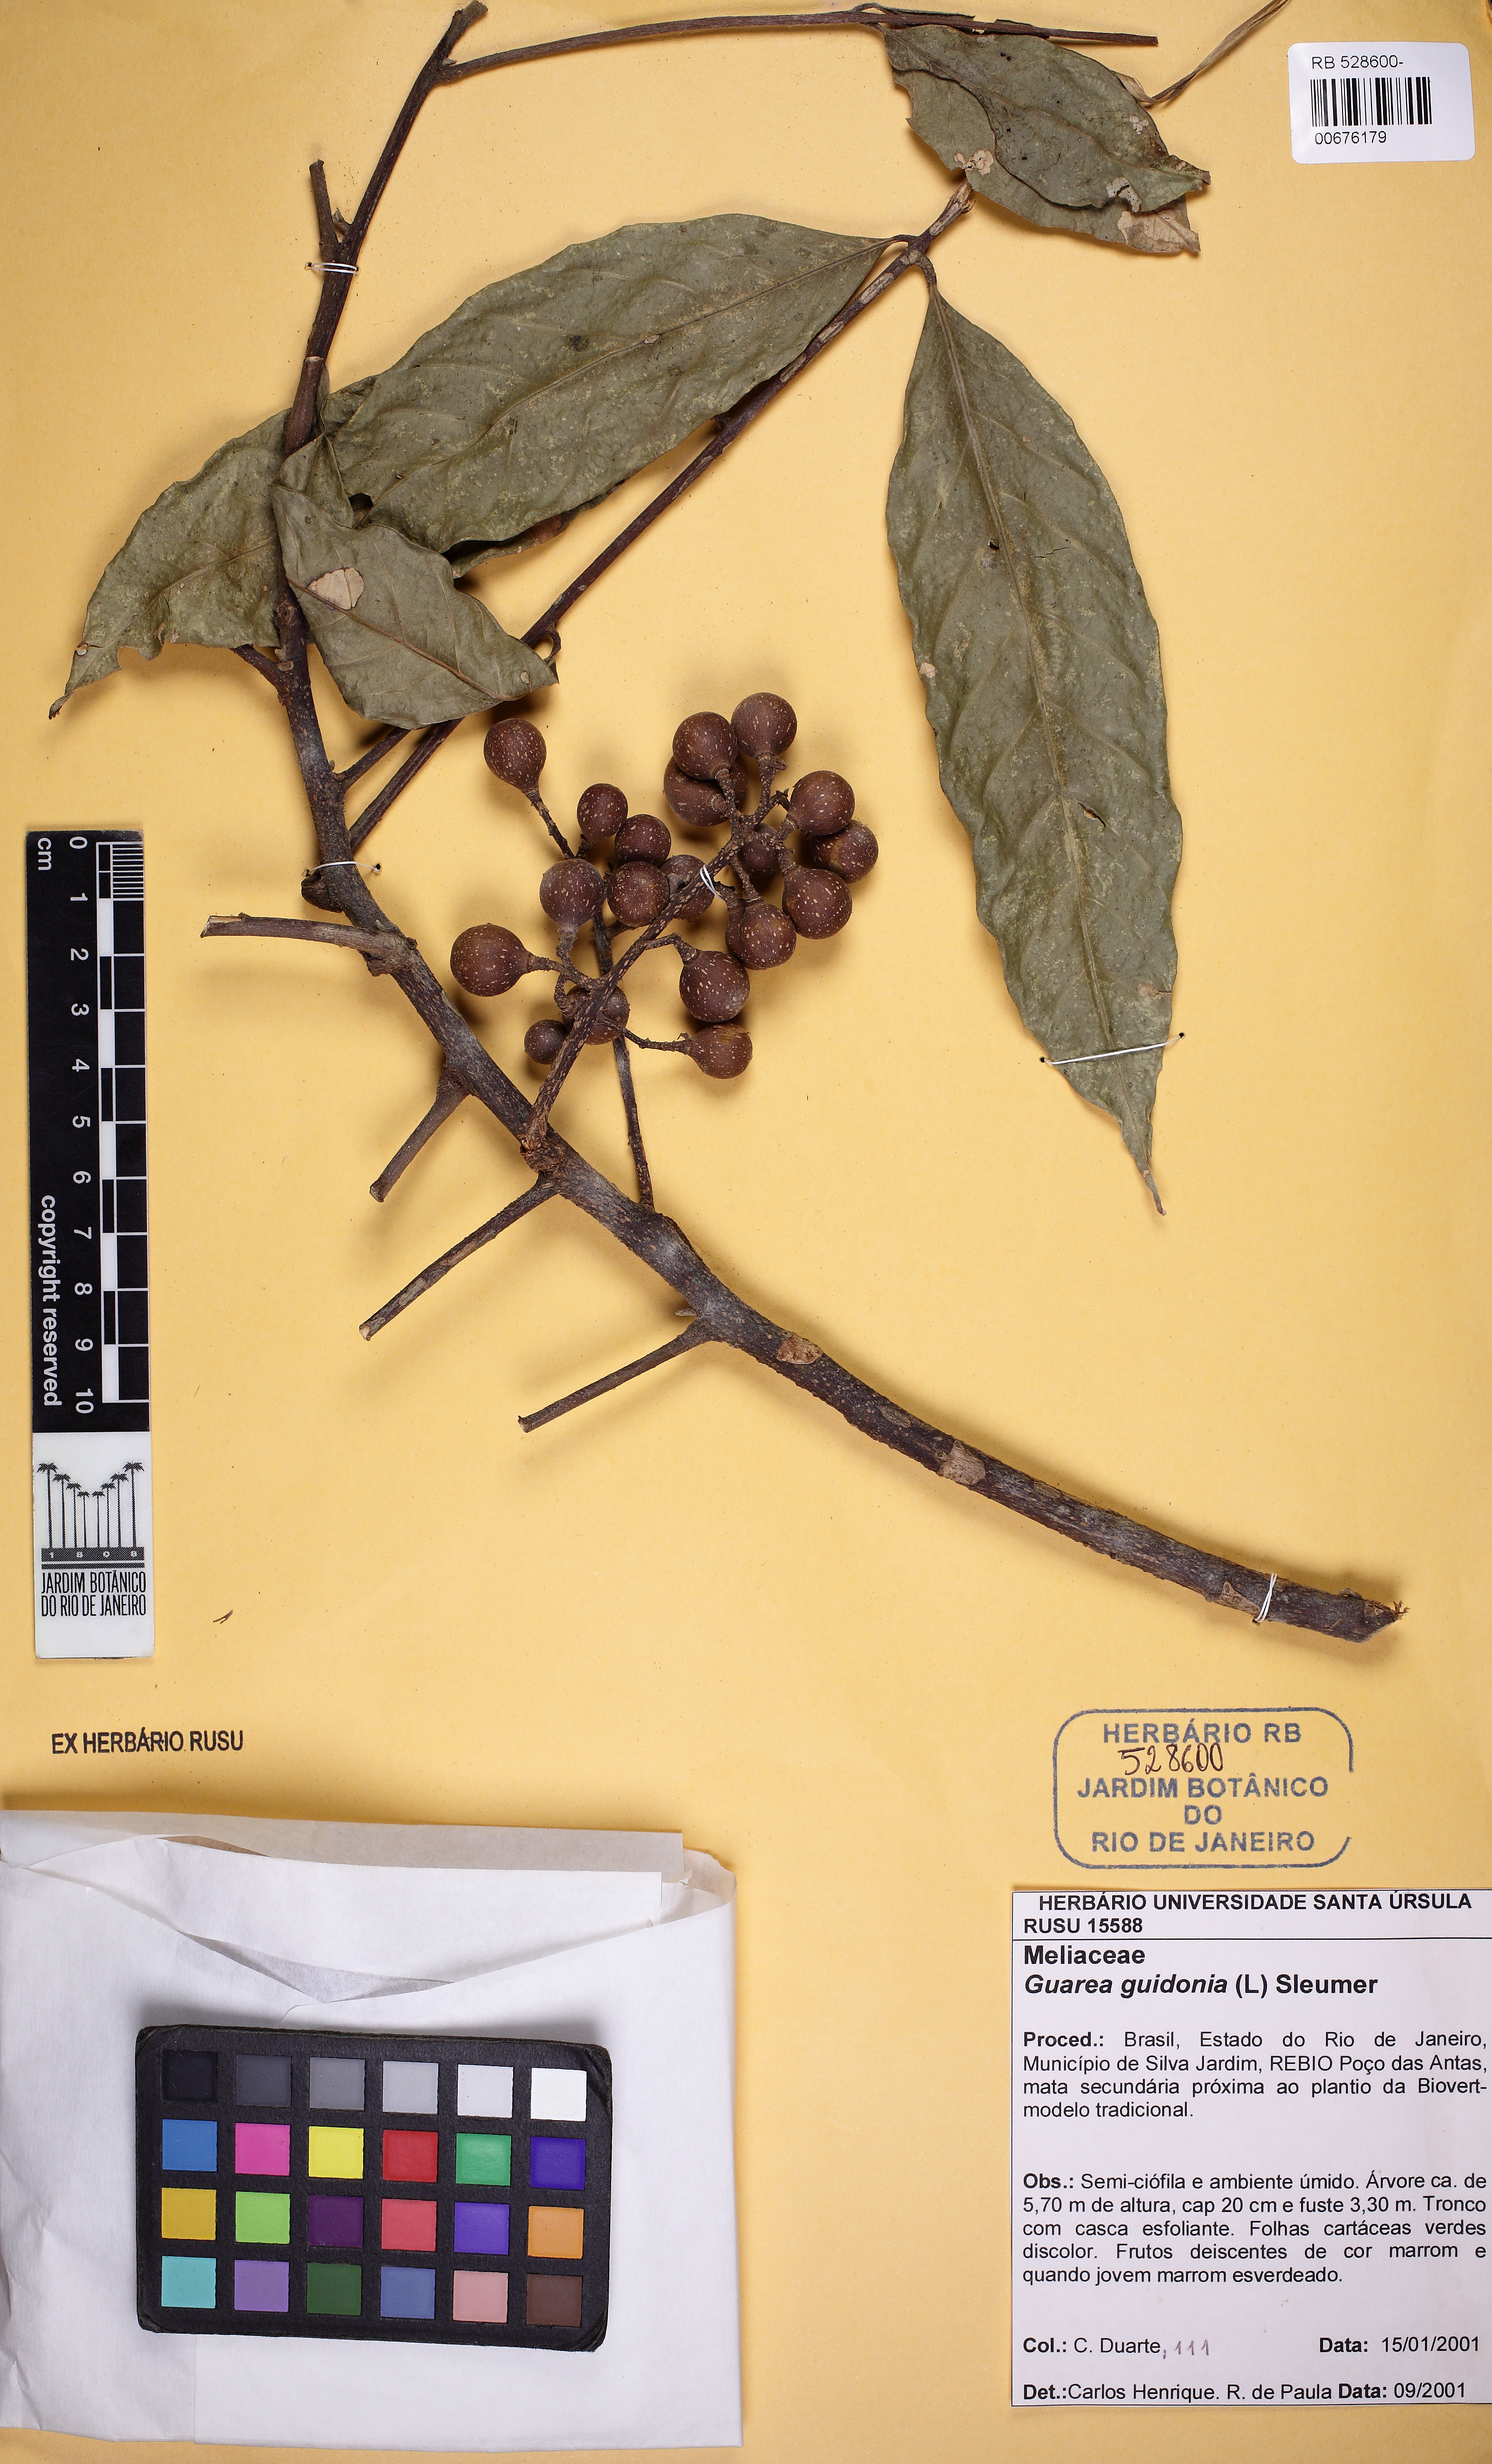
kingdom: Plantae
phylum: Tracheophyta
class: Magnoliopsida
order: Sapindales
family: Meliaceae
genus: Guarea
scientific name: Guarea guidonia
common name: American muskwood
